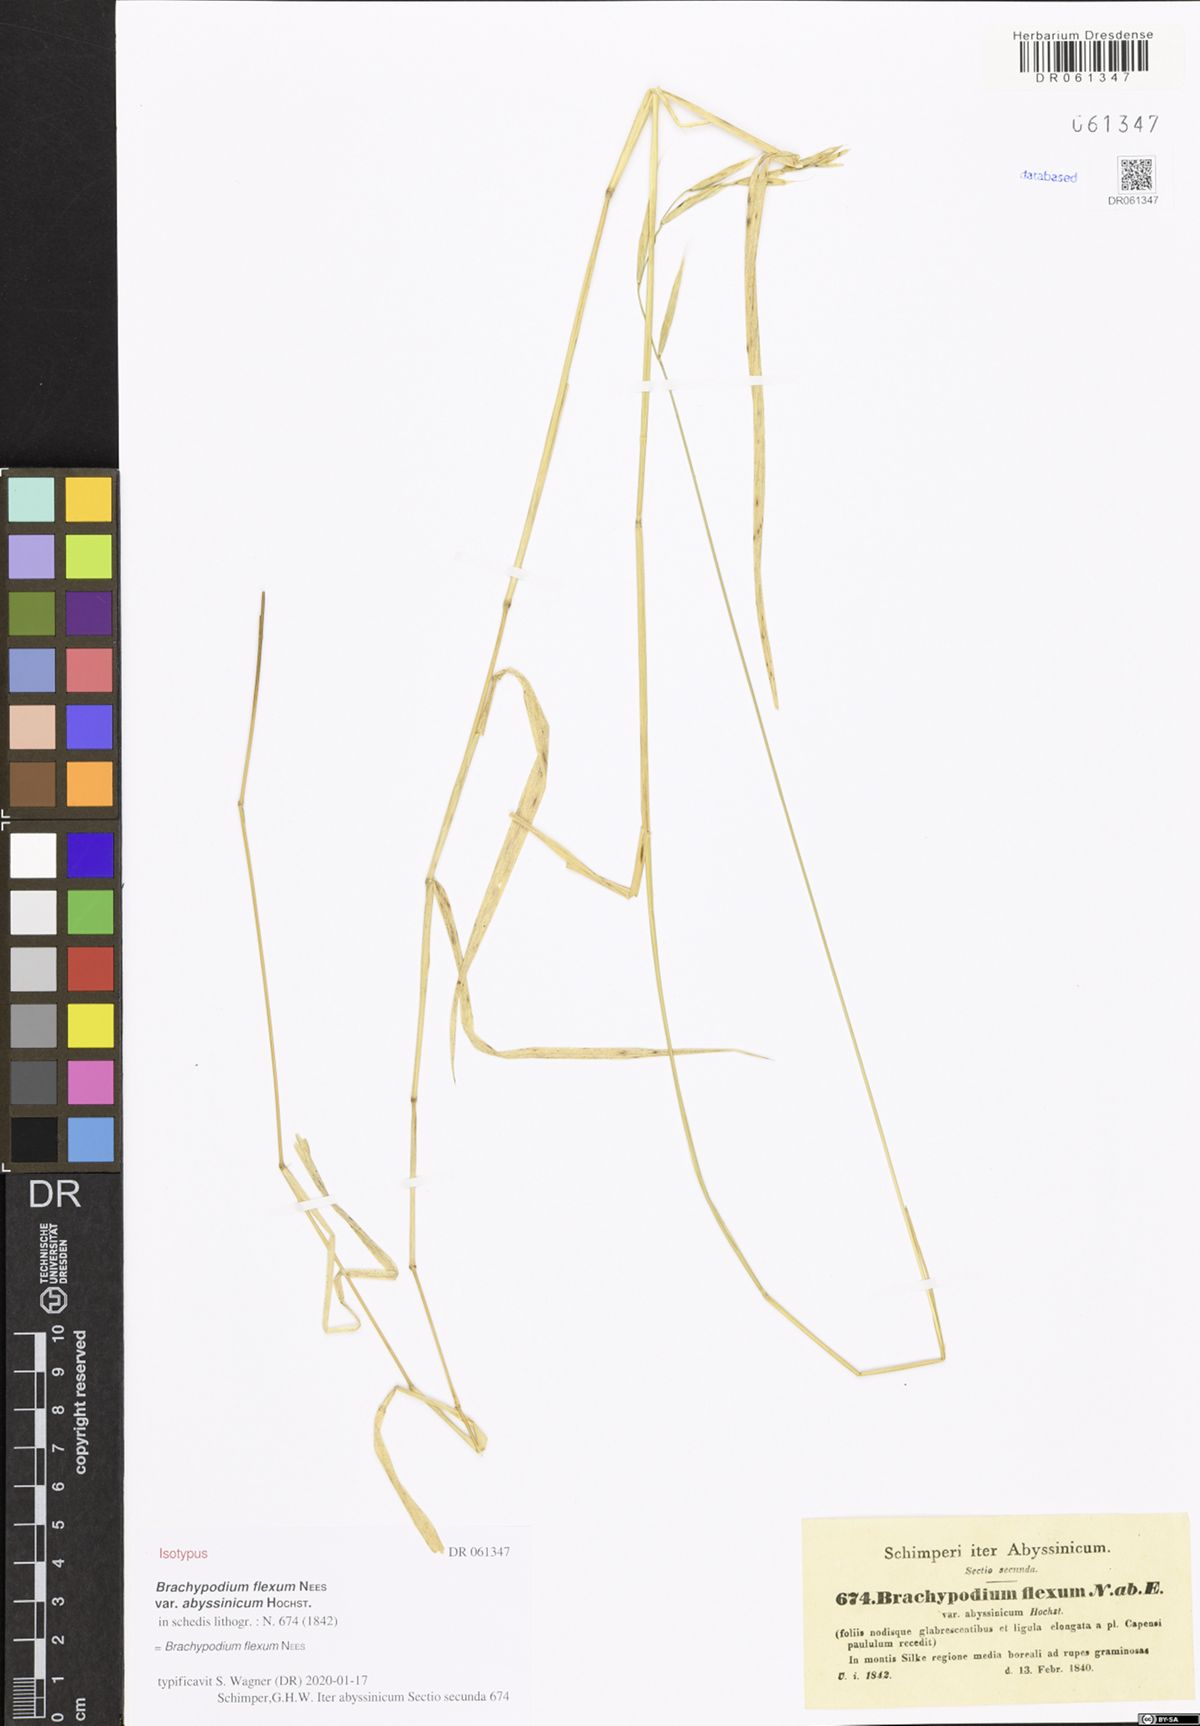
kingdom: Plantae
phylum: Tracheophyta
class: Liliopsida
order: Poales
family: Poaceae
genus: Brachypodium
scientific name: Brachypodium flexum
